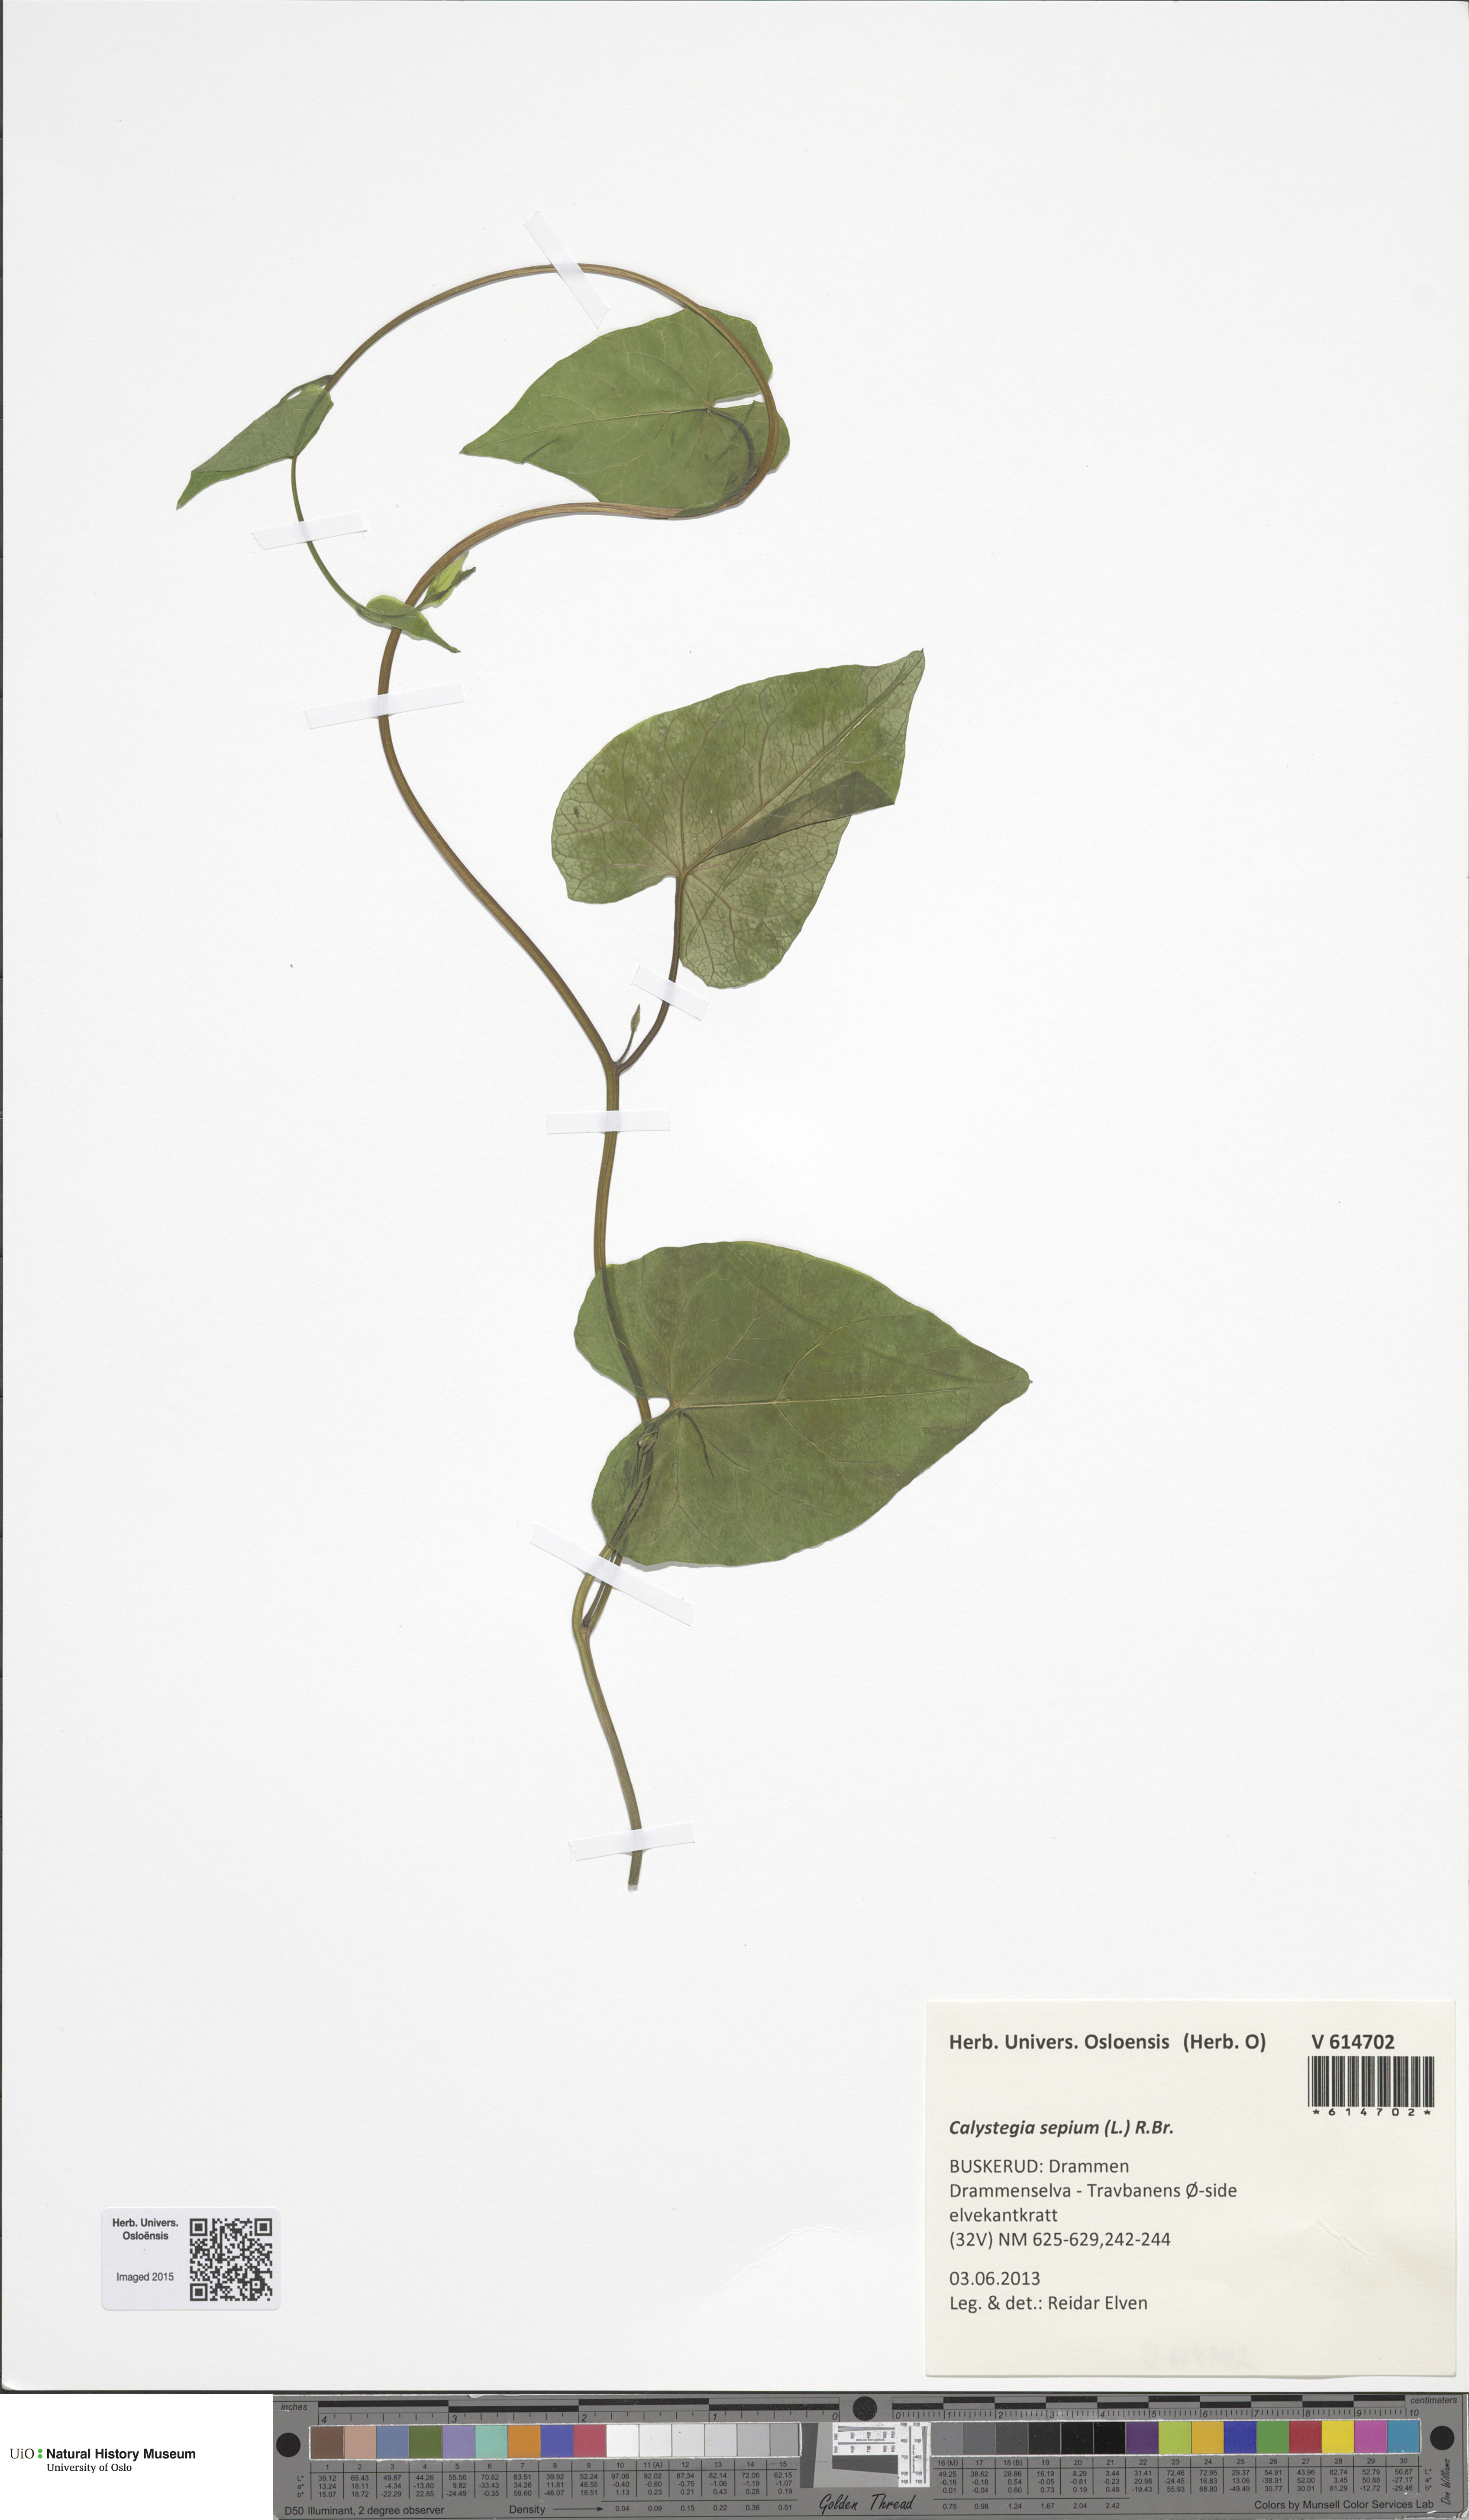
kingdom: Plantae
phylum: Tracheophyta
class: Magnoliopsida
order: Solanales
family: Convolvulaceae
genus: Calystegia
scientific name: Calystegia sepium
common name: Hedge bindweed
